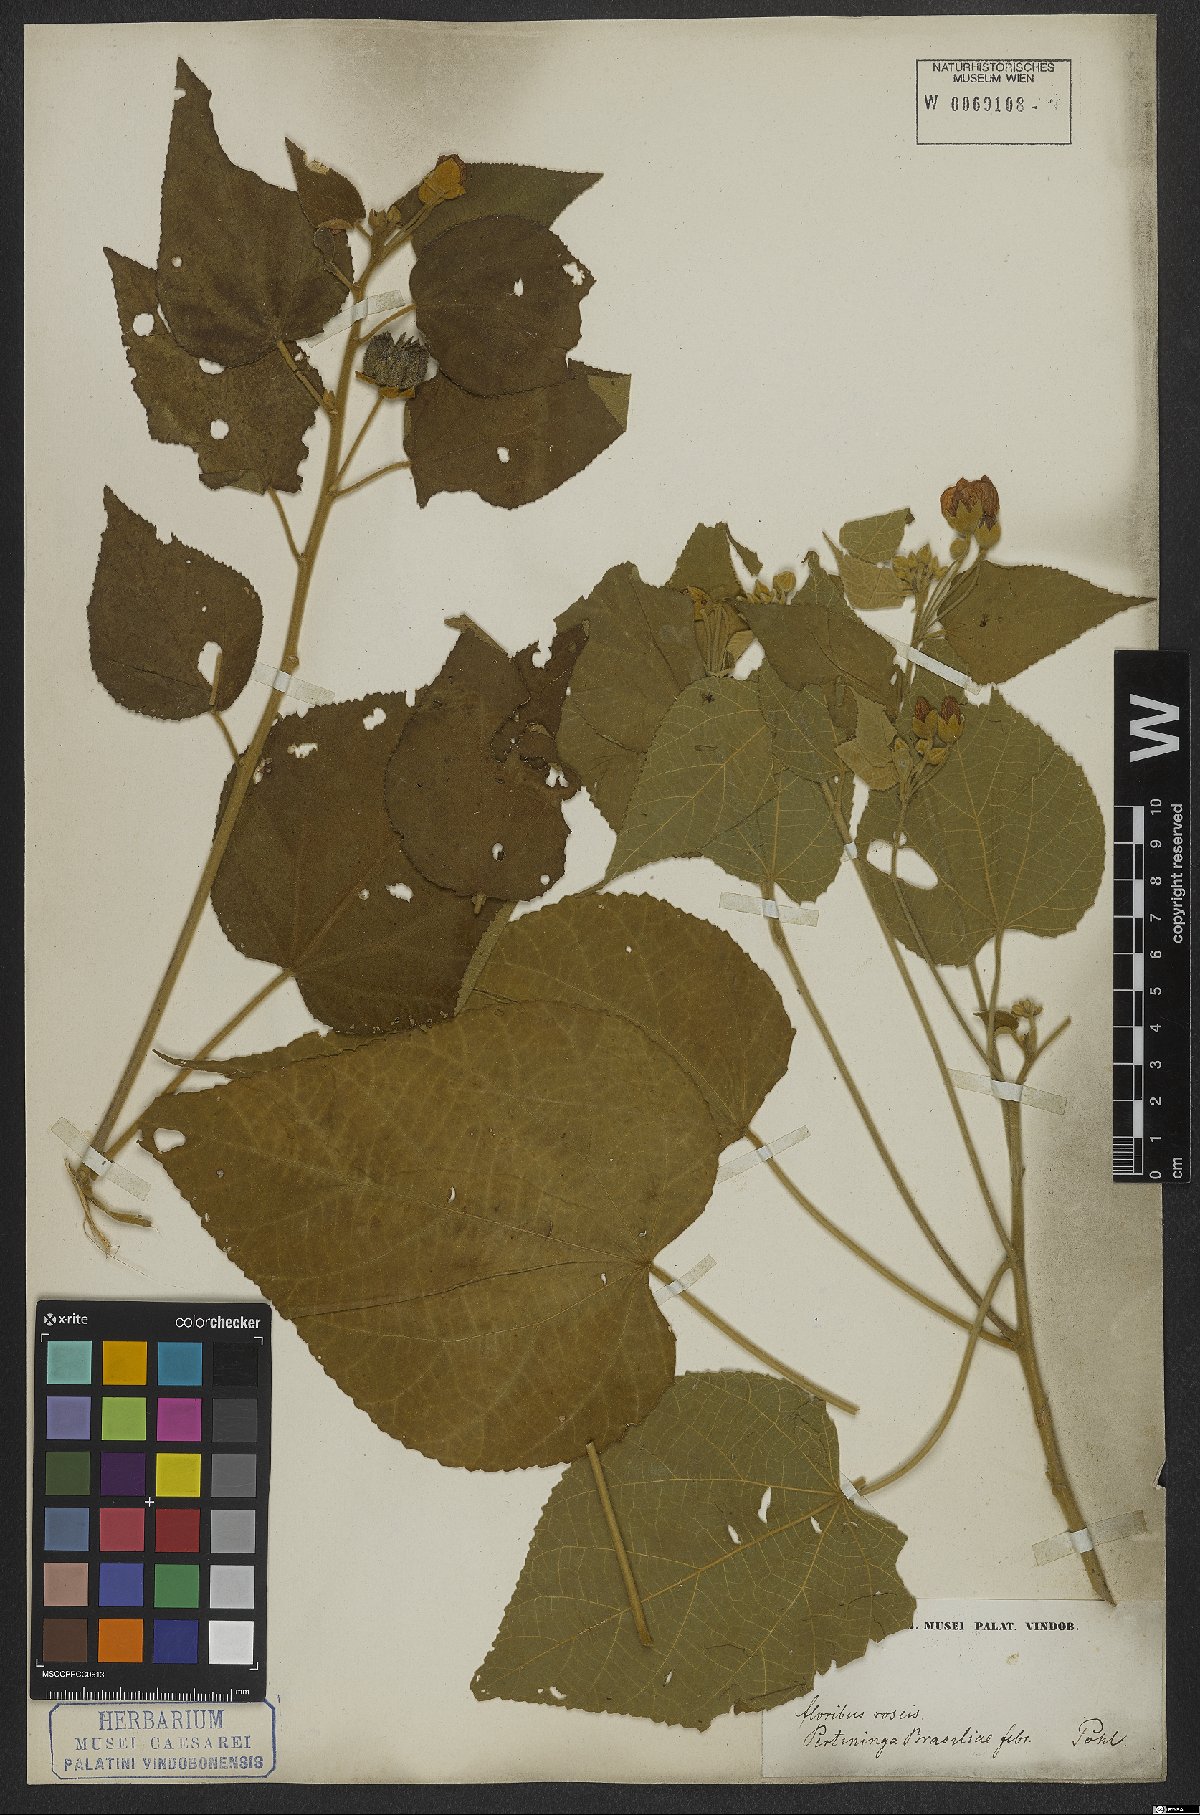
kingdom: Plantae
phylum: Tracheophyta
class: Magnoliopsida
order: Malvales
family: Malvaceae
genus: Bakeridesia
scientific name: Bakeridesia esculenta
